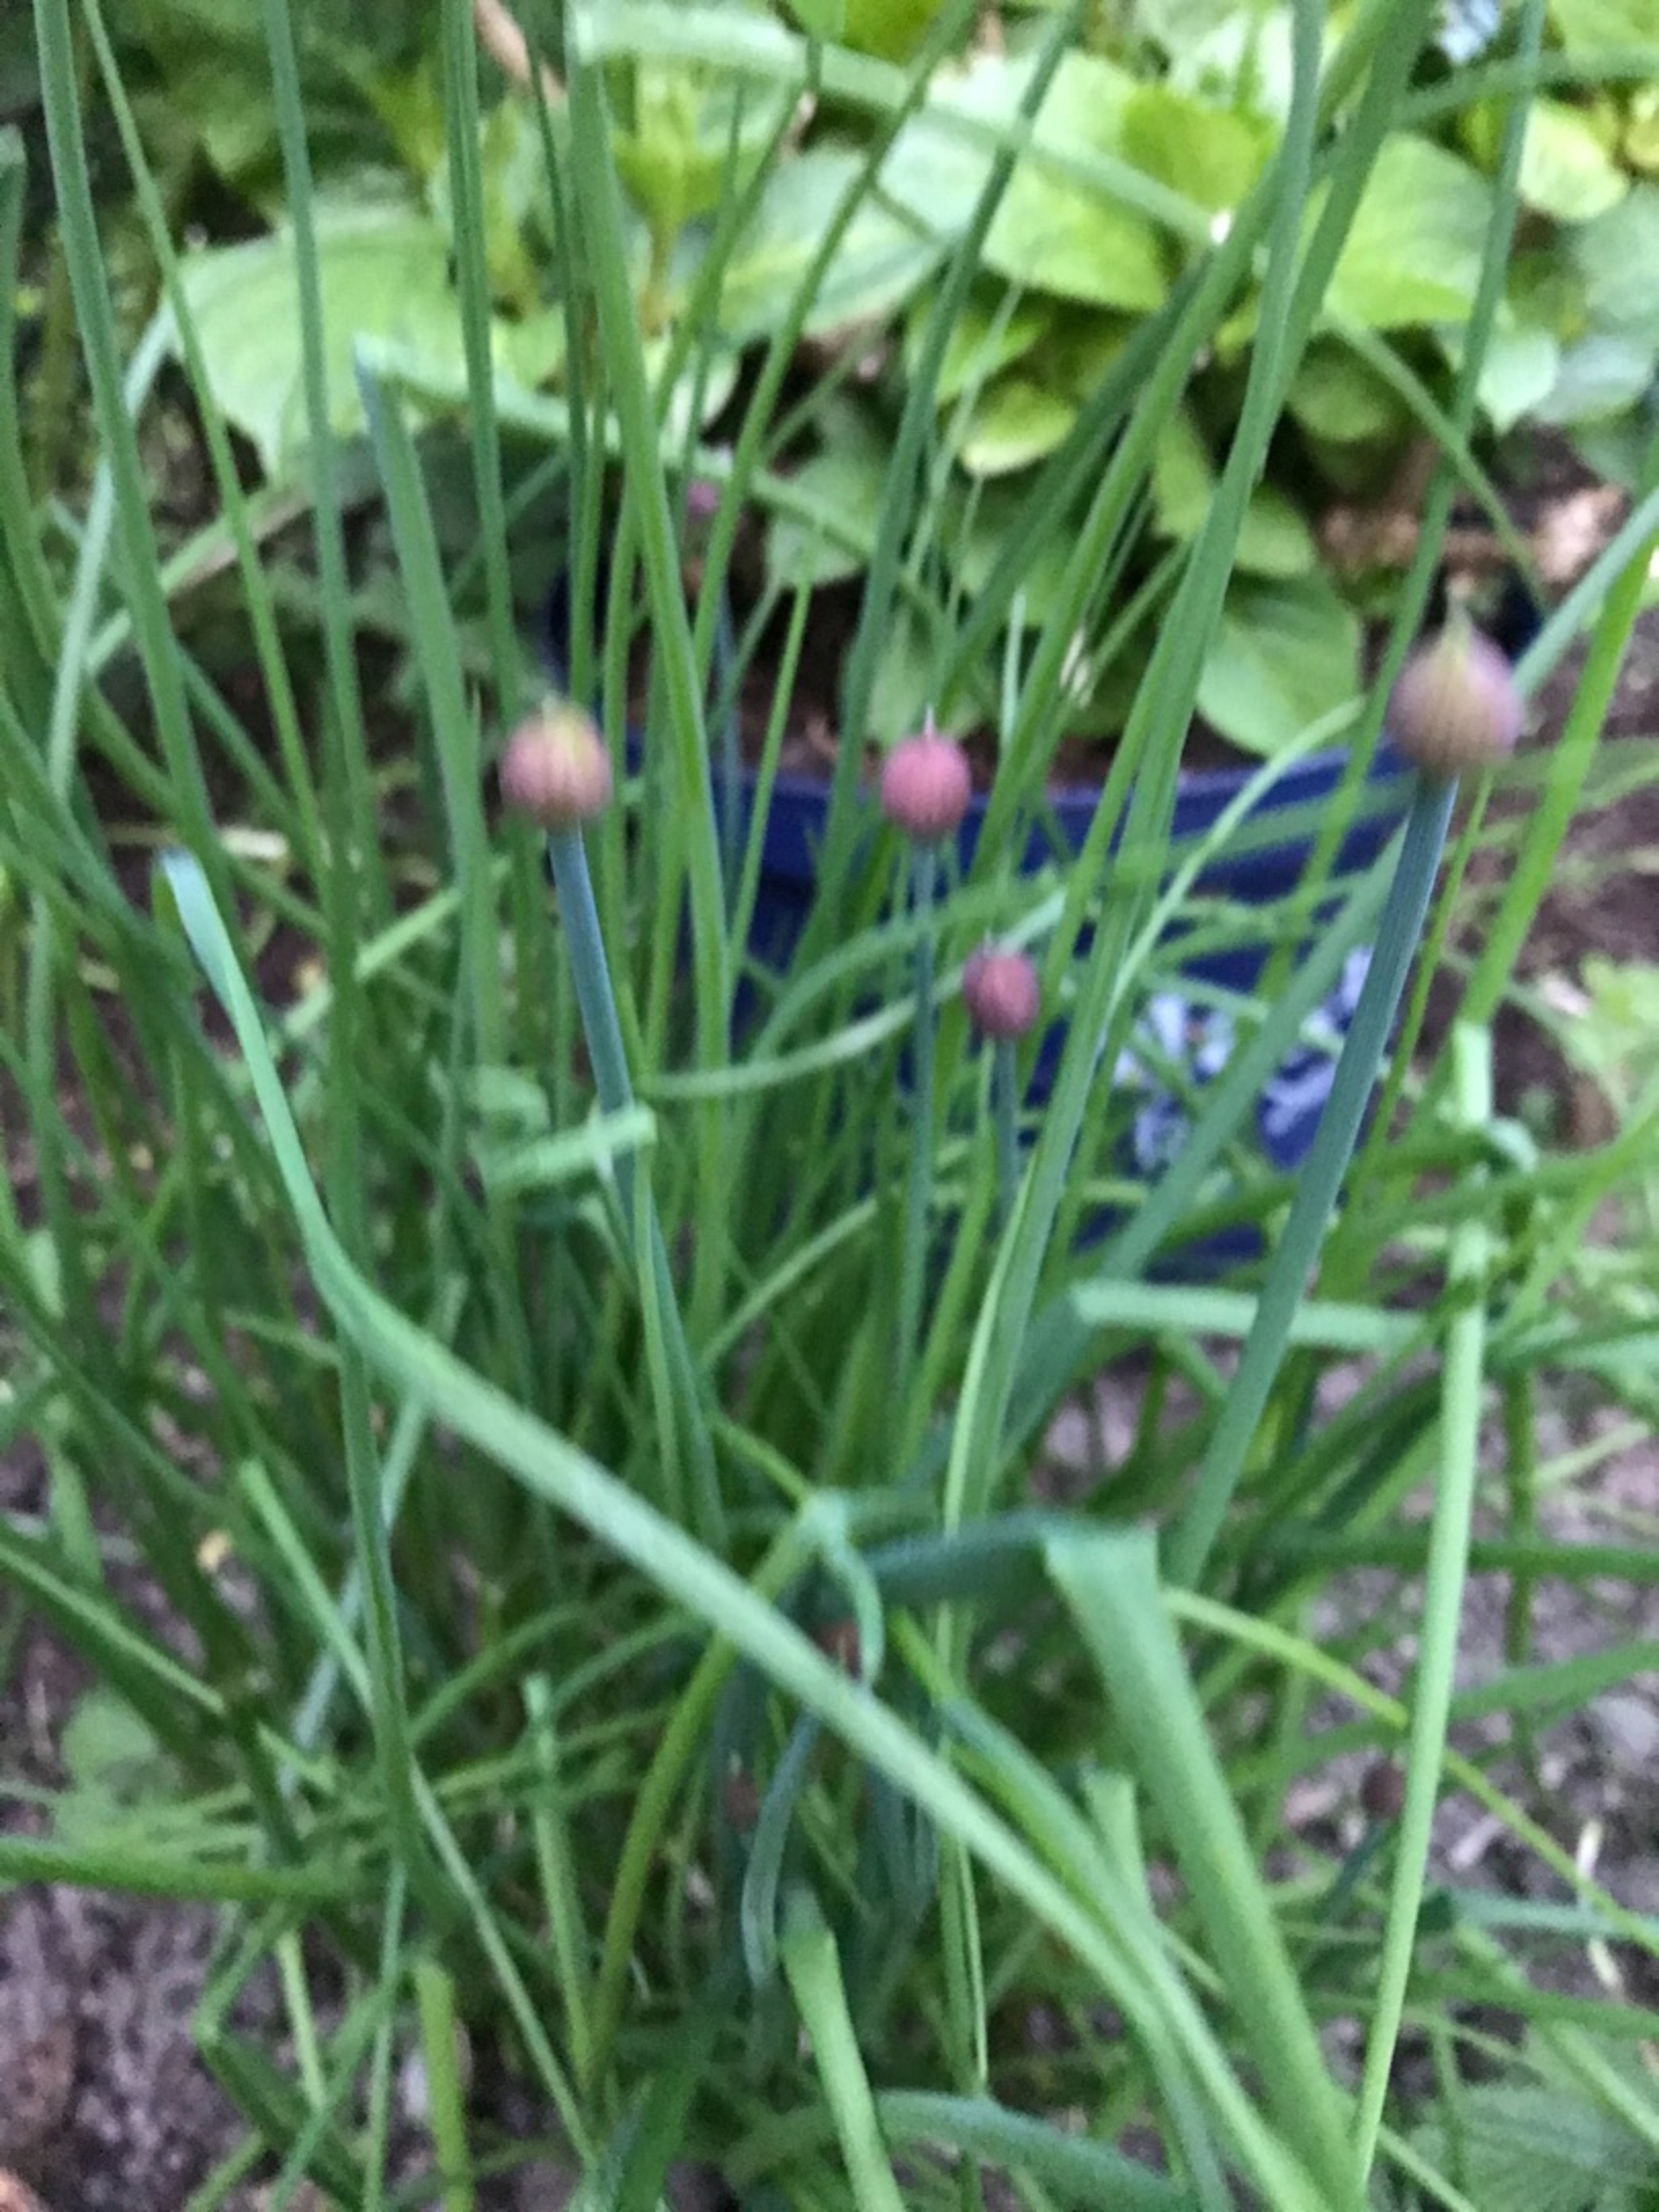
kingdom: Plantae
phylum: Tracheophyta
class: Liliopsida
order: Asparagales
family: Amaryllidaceae
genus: Allium
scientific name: Allium schoenoprasum
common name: Pur-løg
